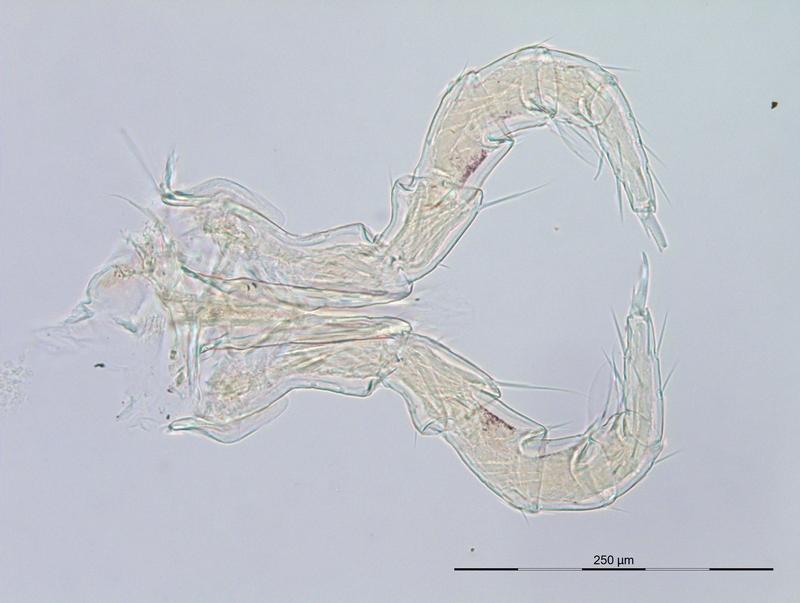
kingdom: Animalia
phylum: Arthropoda
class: Diplopoda
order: Julida
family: Blaniulidae
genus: Nopoiulus
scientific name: Nopoiulus kochii
